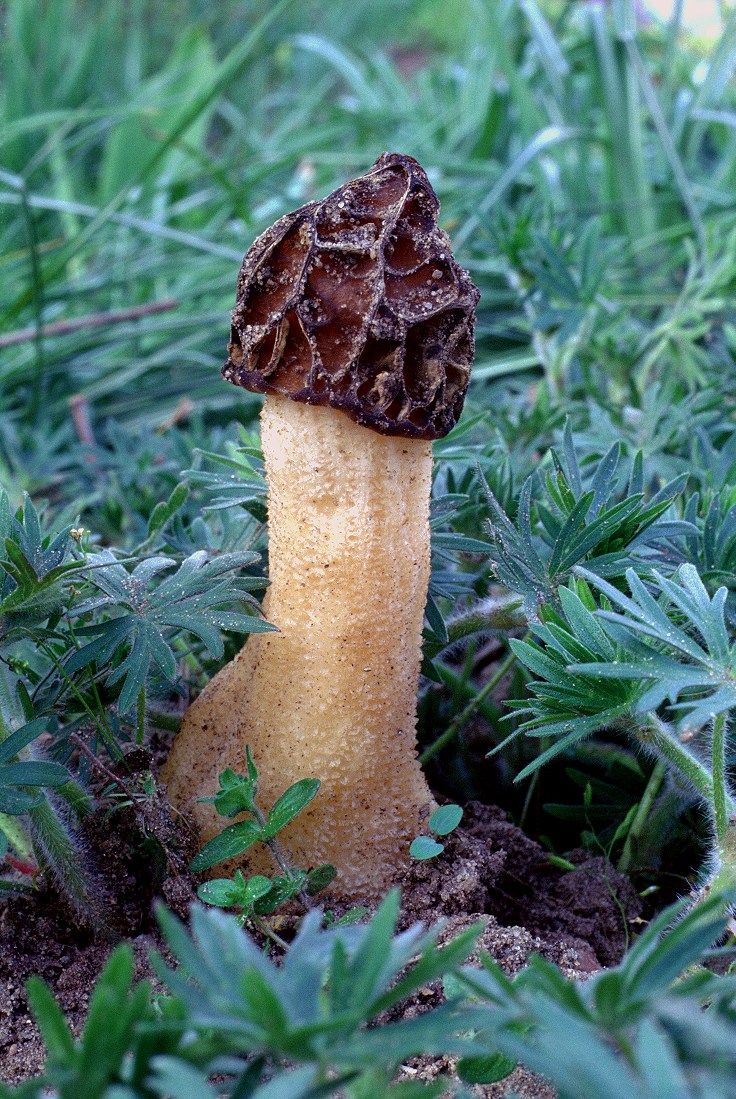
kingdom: Fungi
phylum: Ascomycota
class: Pezizomycetes
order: Pezizales
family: Morchellaceae
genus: Morchella
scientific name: Morchella semilibera
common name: hætte-morkel
